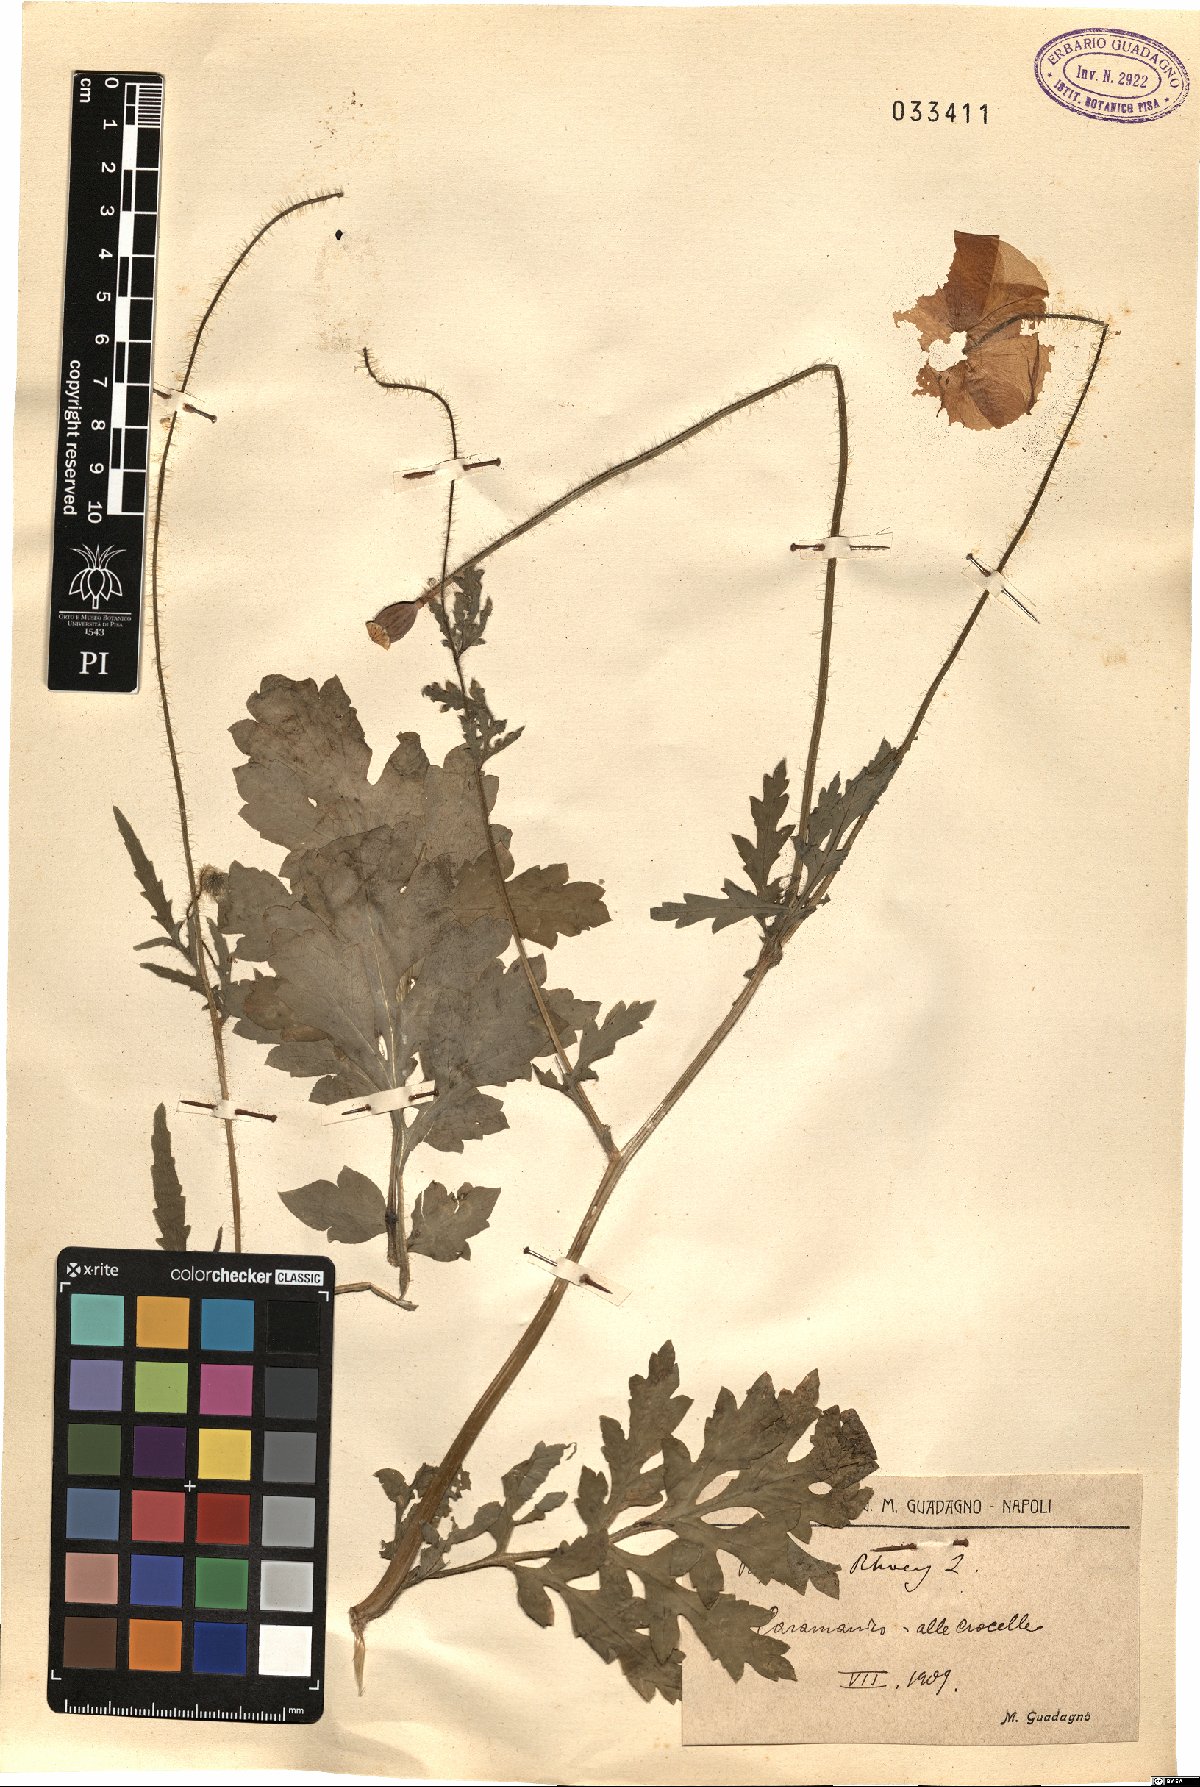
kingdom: Plantae
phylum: Tracheophyta
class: Magnoliopsida
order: Ranunculales
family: Papaveraceae
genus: Papaver
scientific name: Papaver rhoeas
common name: Corn poppy
